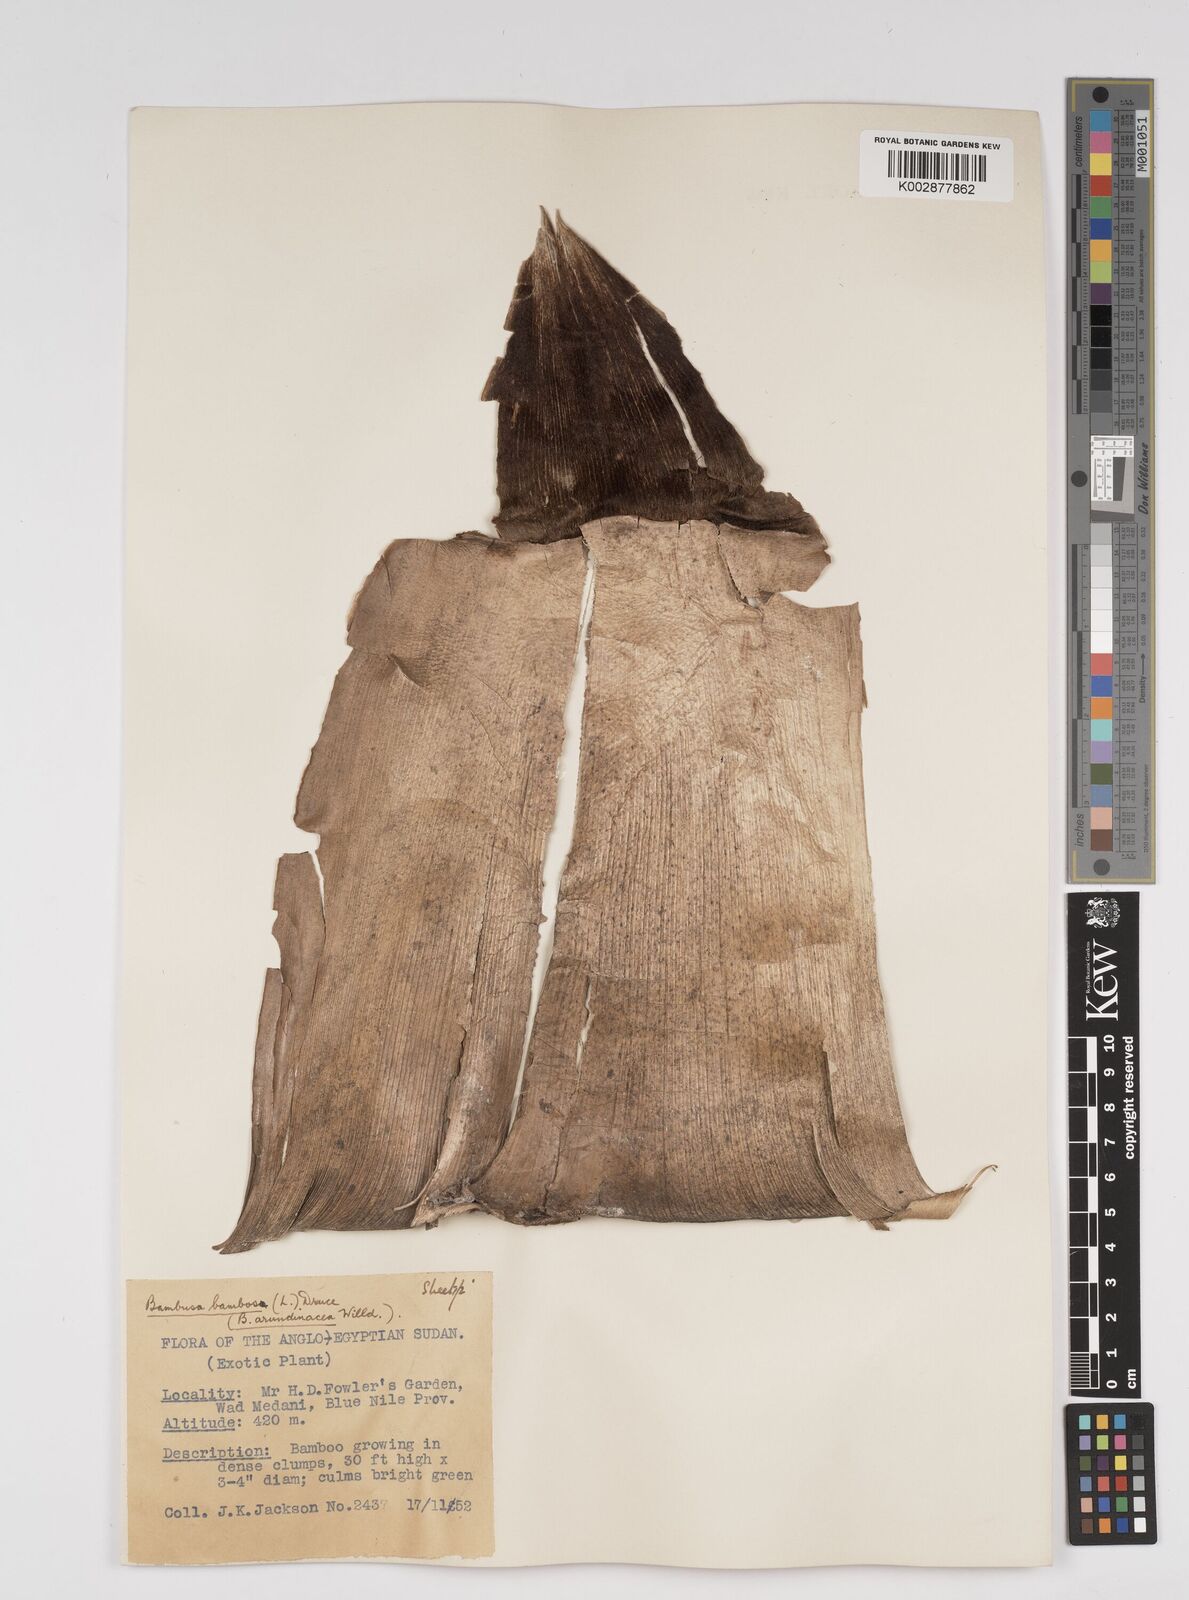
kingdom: Plantae
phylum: Tracheophyta
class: Liliopsida
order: Poales
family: Poaceae
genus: Bambusa
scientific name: Bambusa vulgaris
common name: Common bamboo
